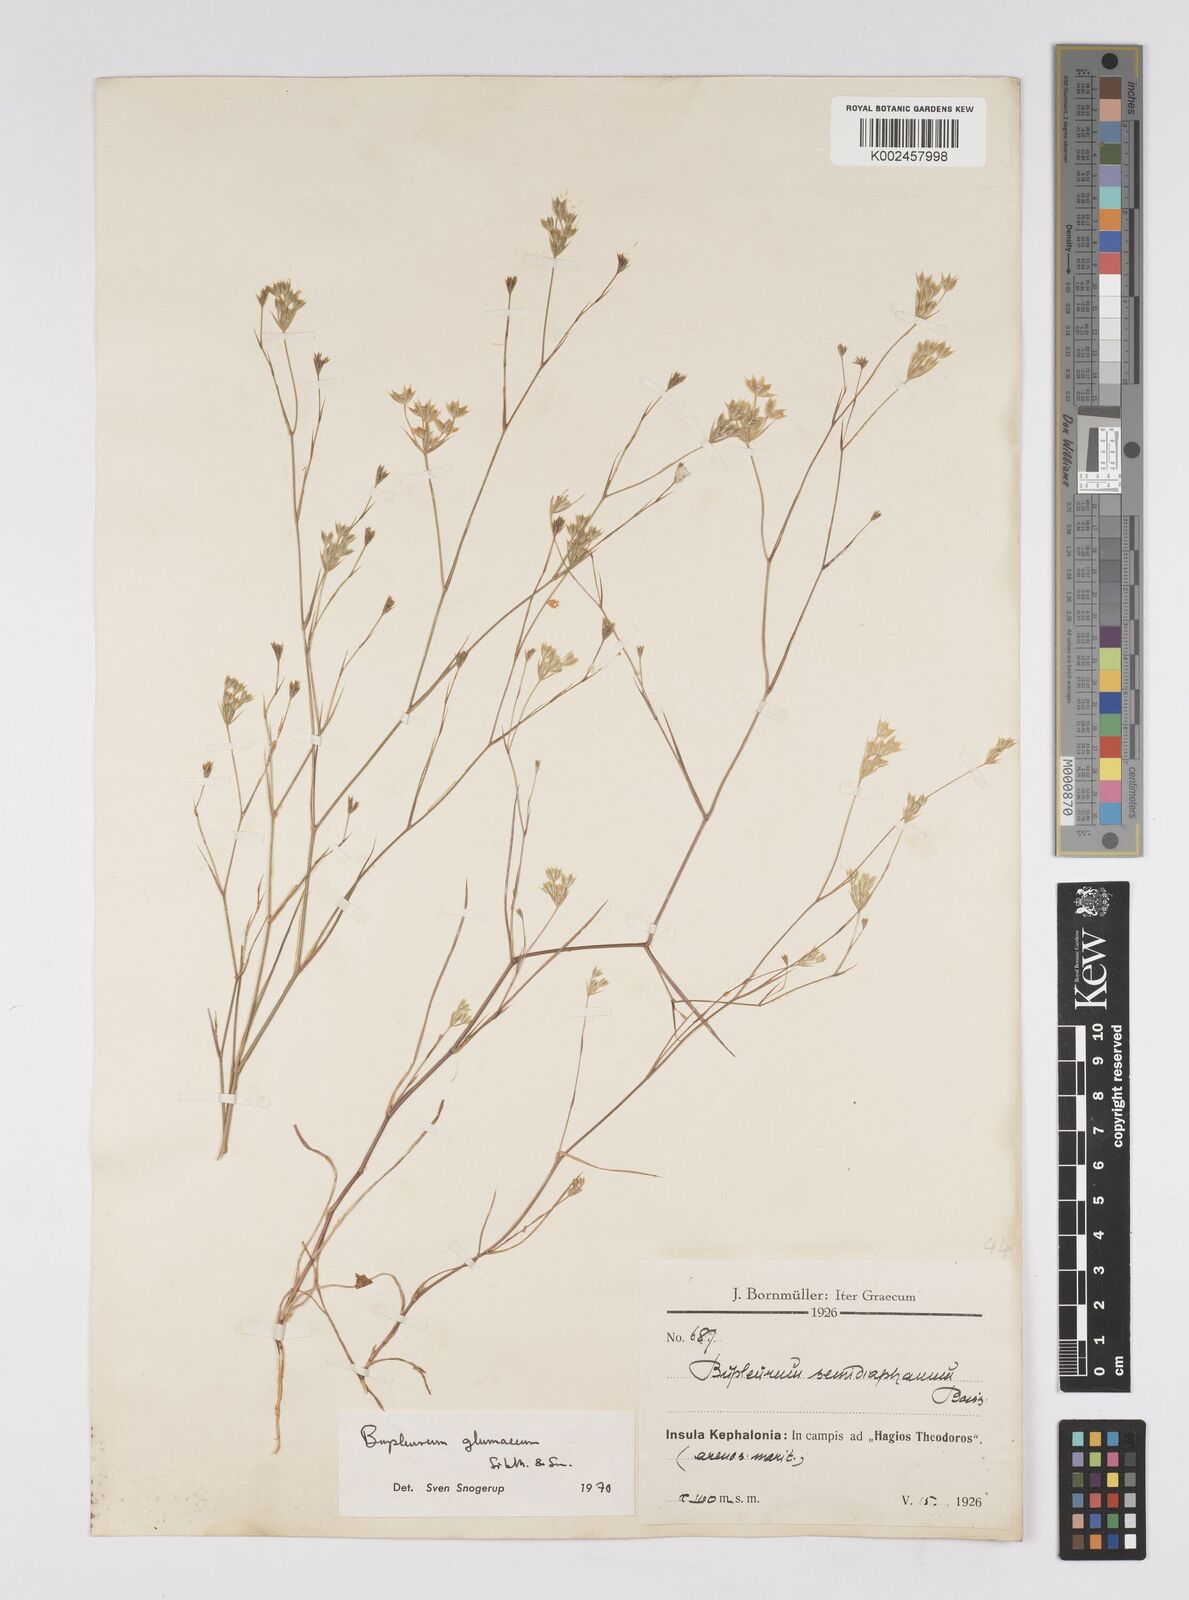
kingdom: Plantae
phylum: Tracheophyta
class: Magnoliopsida
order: Apiales
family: Apiaceae
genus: Bupleurum
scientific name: Bupleurum glumaceum
